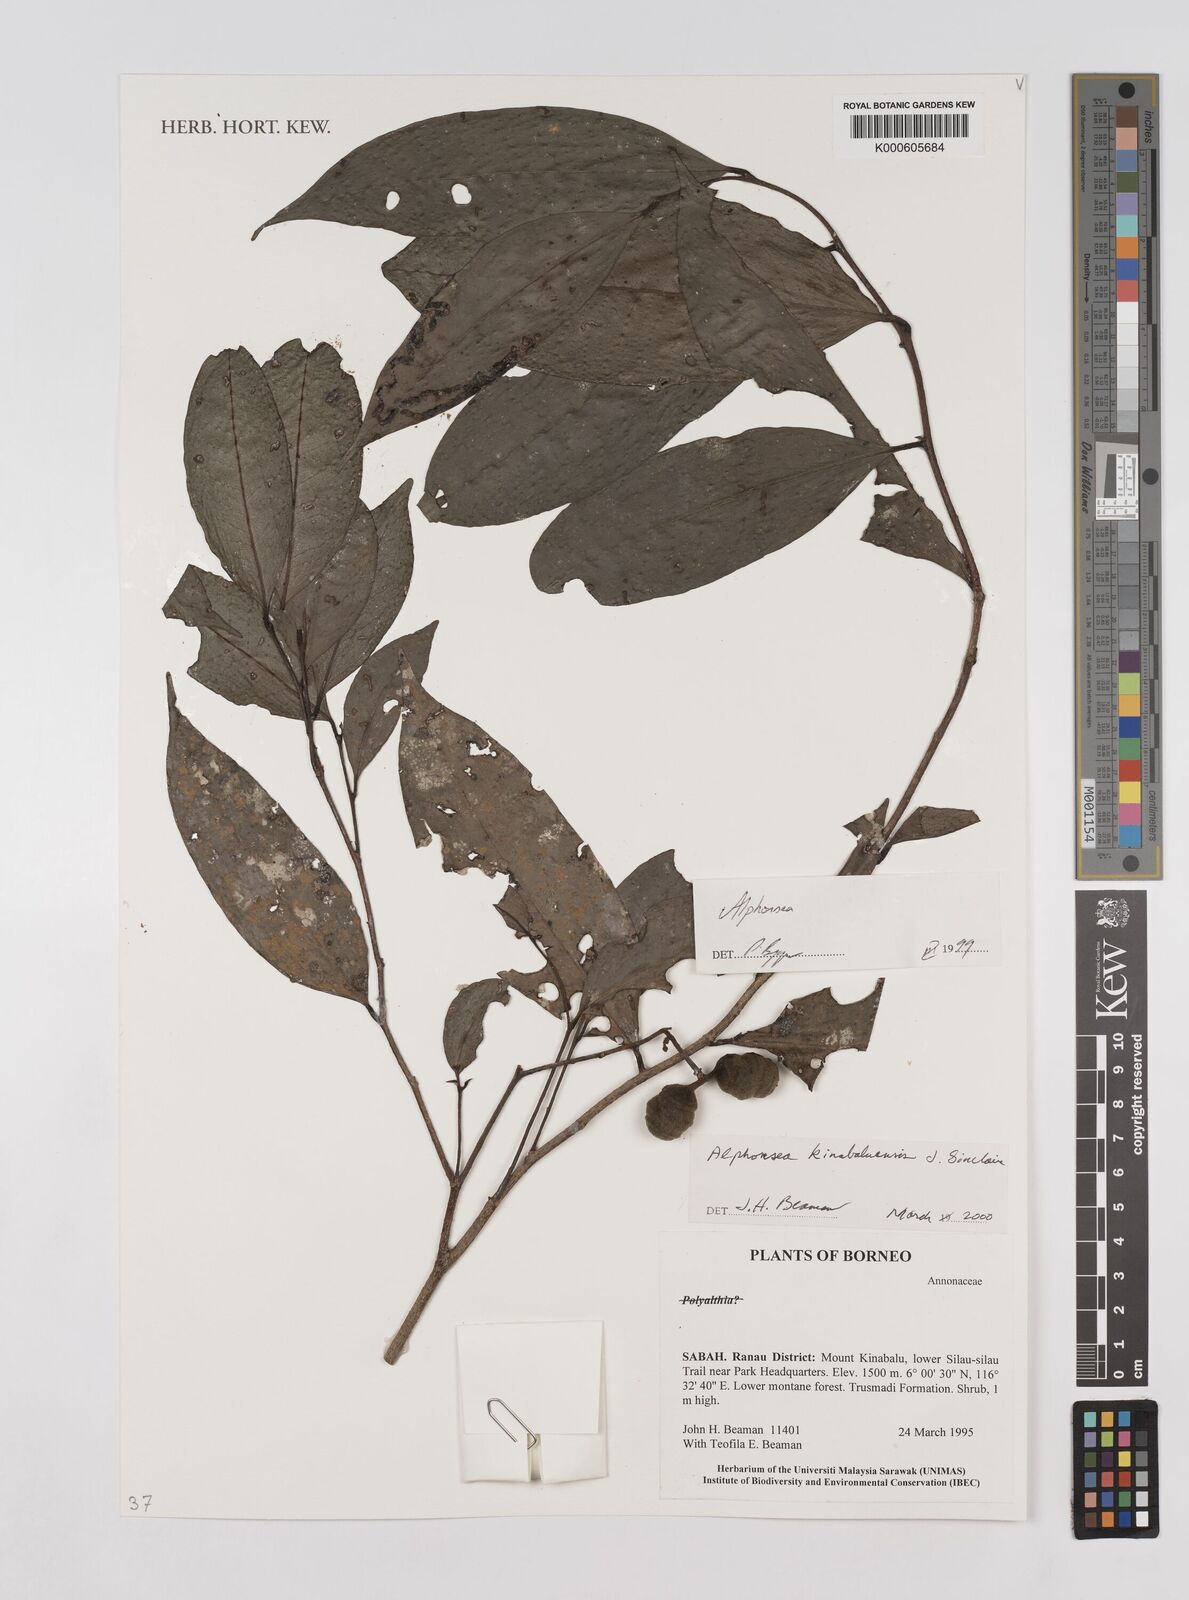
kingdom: Plantae
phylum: Tracheophyta
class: Magnoliopsida
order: Magnoliales
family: Annonaceae
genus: Alphonsea
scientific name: Alphonsea kinabaluensis
